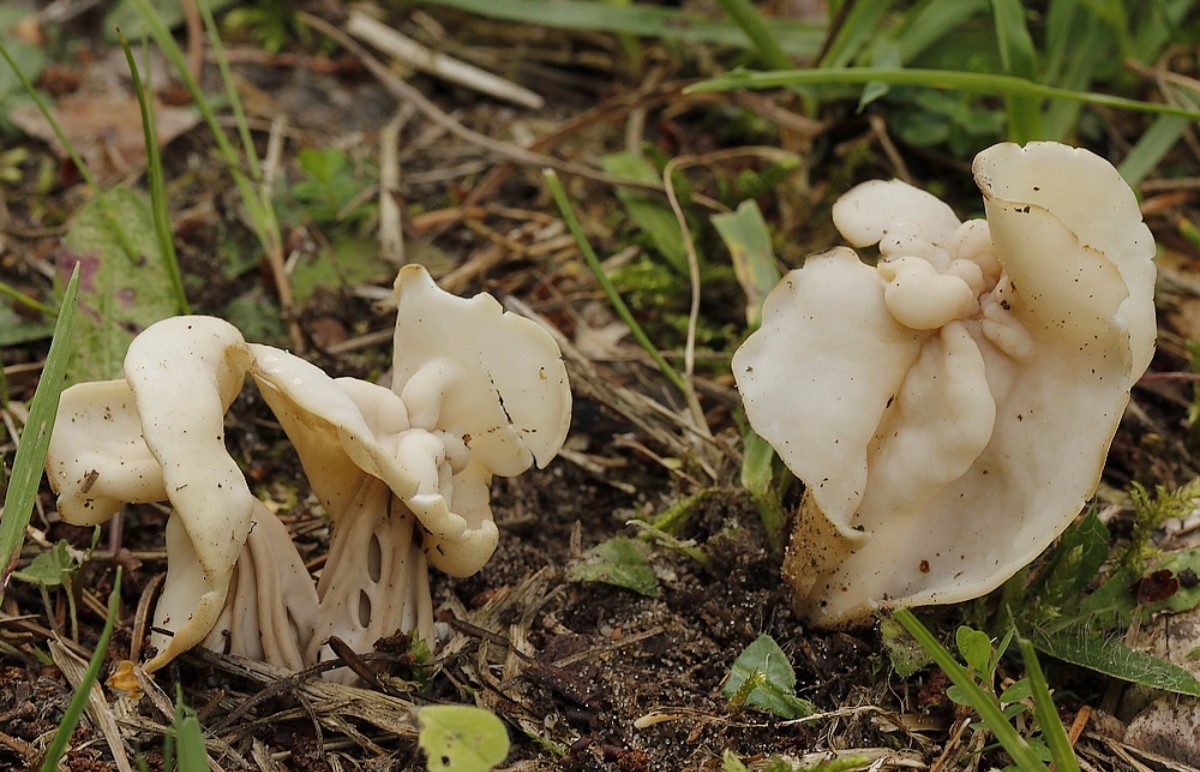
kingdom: Fungi
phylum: Ascomycota
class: Pezizomycetes
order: Pezizales
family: Helvellaceae
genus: Helvella
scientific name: Helvella crispa
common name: kruset foldhat
